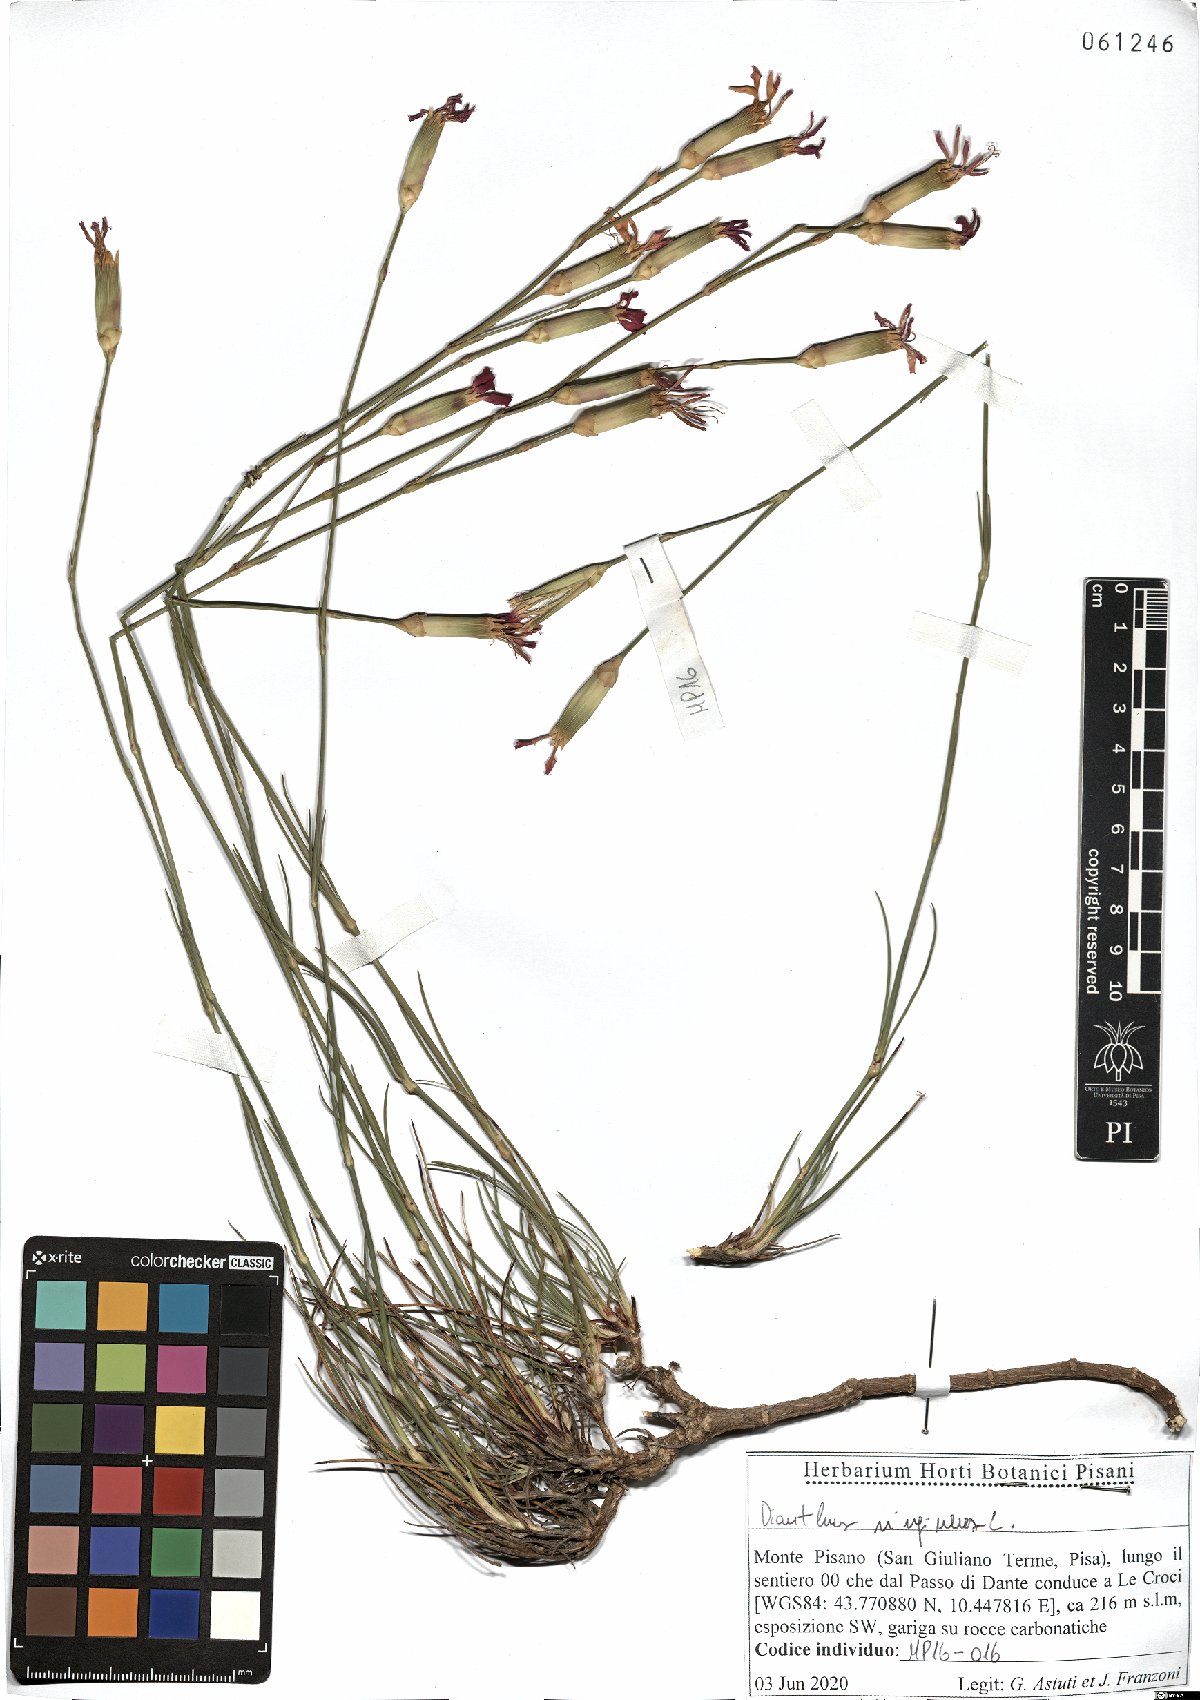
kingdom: Plantae
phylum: Tracheophyta
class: Magnoliopsida
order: Caryophyllales
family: Caryophyllaceae
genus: Dianthus
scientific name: Dianthus virgineus
